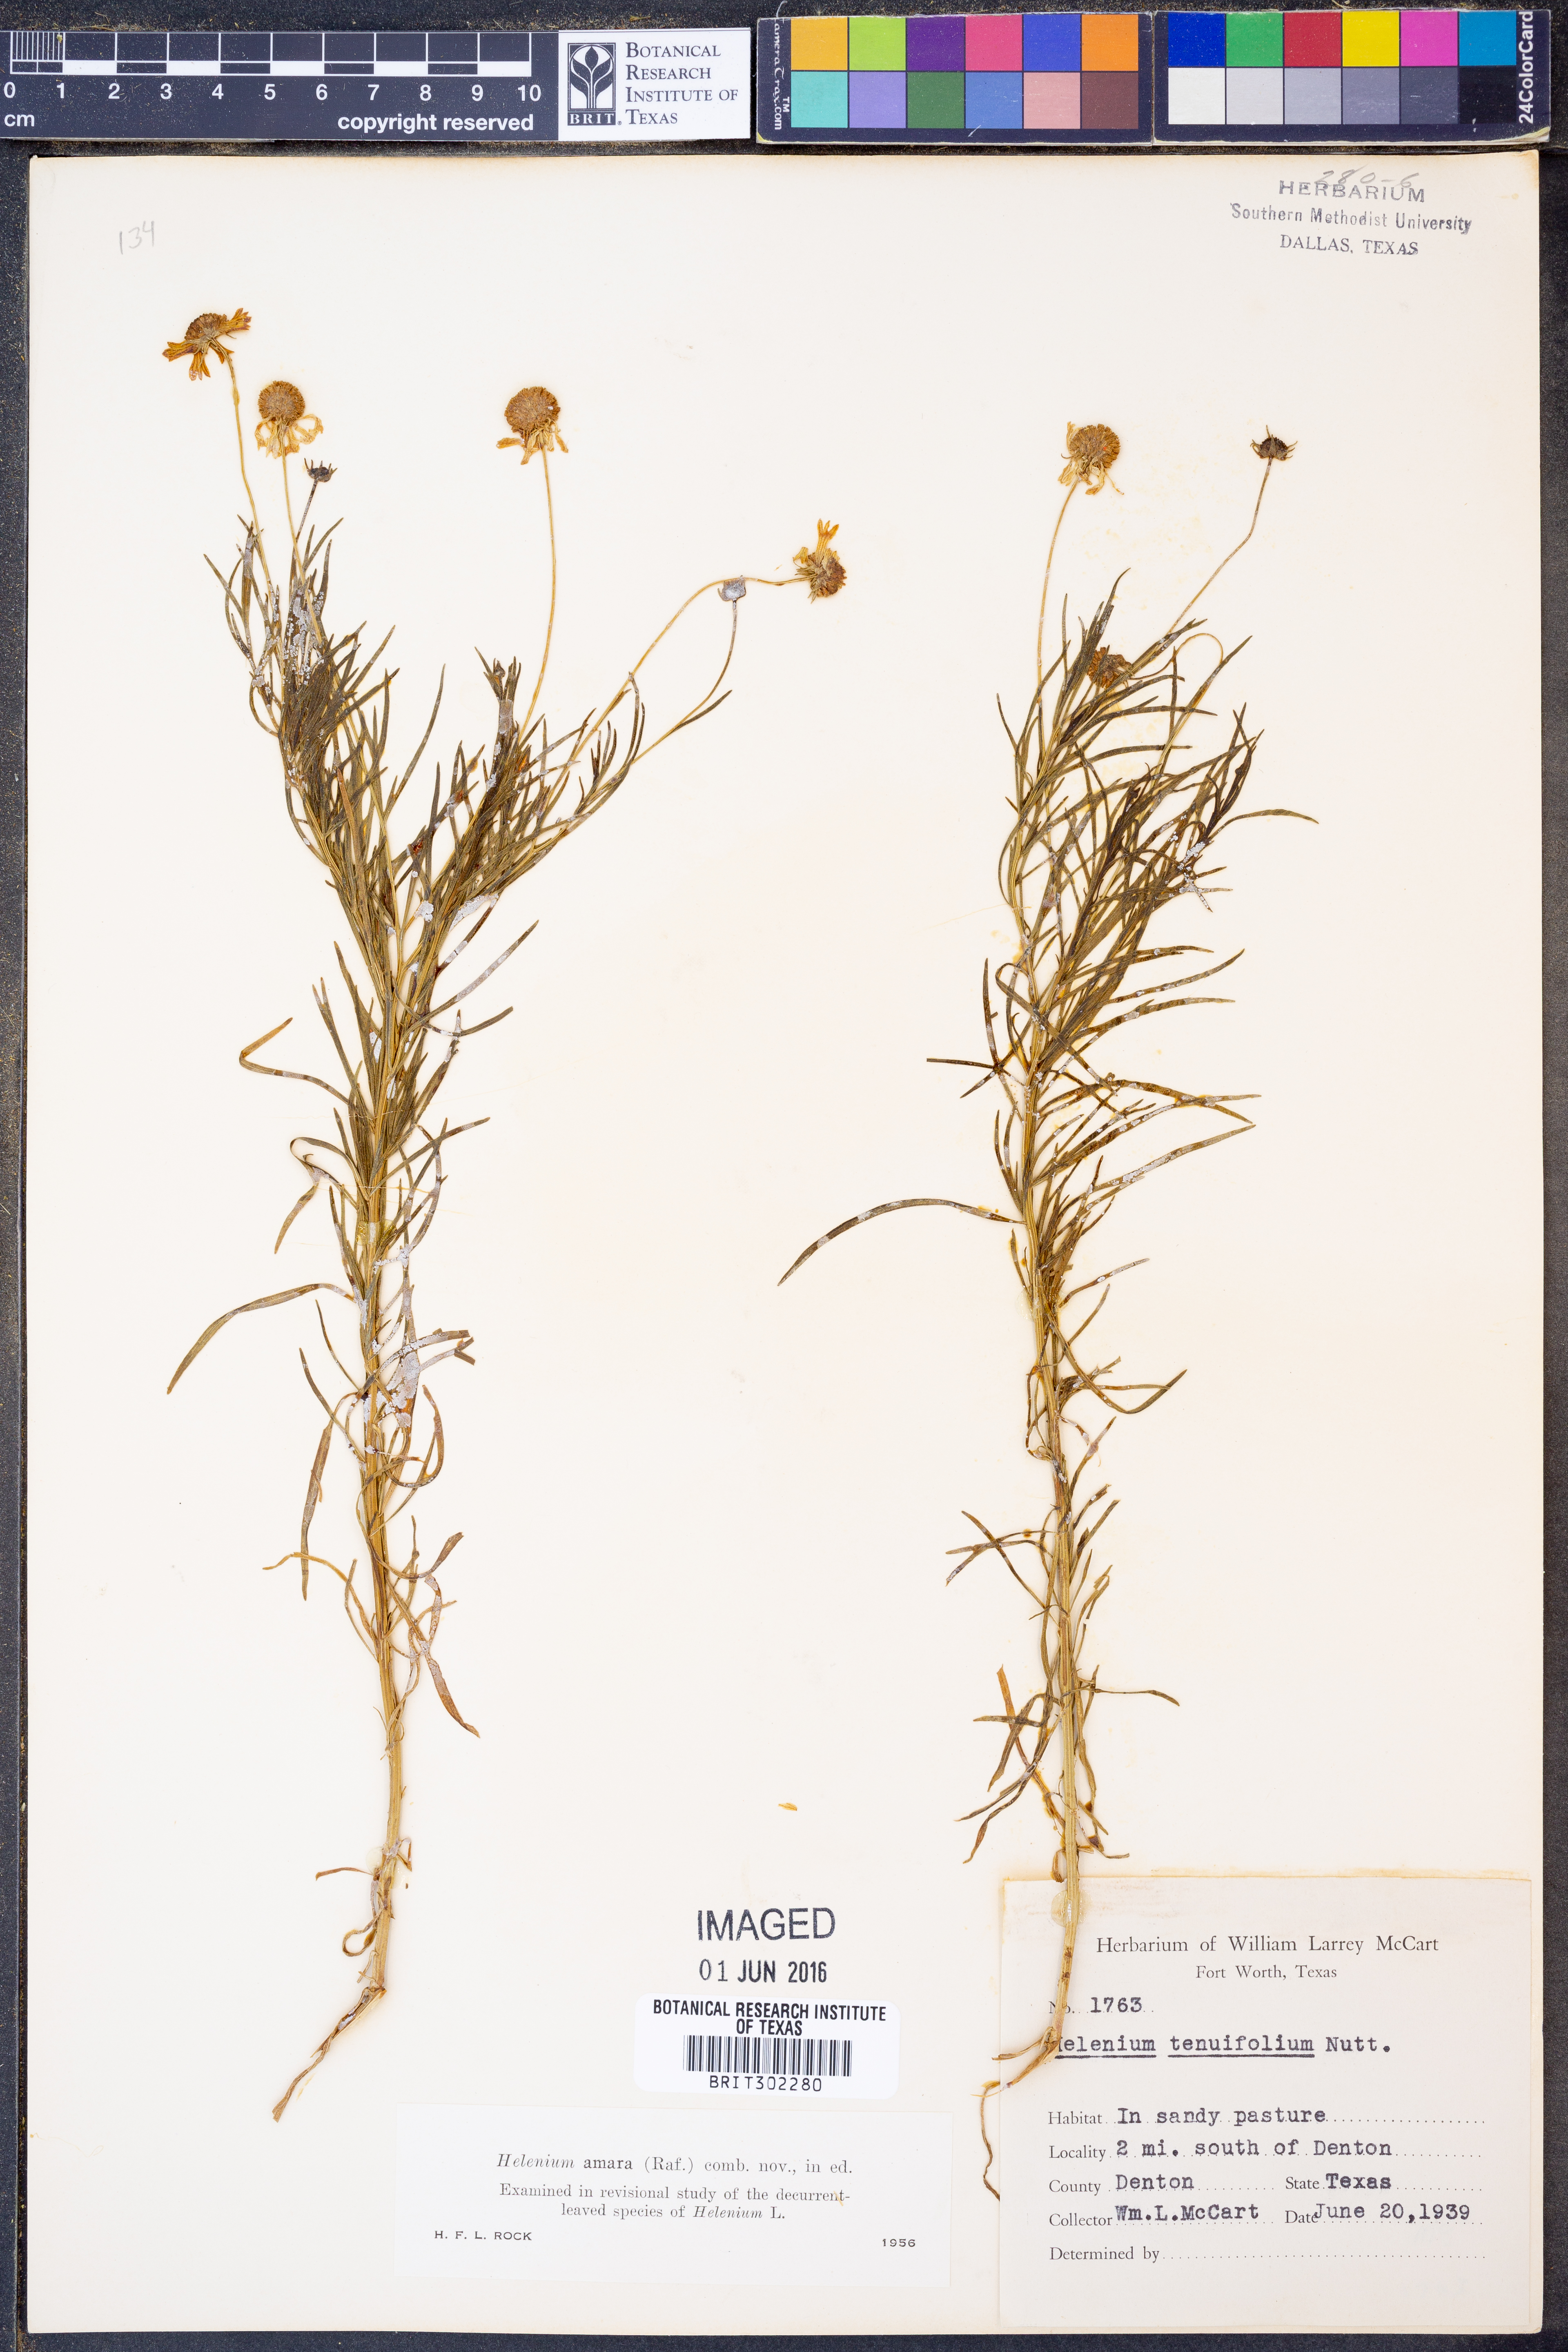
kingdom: Plantae
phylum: Tracheophyta
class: Magnoliopsida
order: Asterales
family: Asteraceae
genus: Helenium
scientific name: Helenium amarum
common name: Bitter sneezeweed
